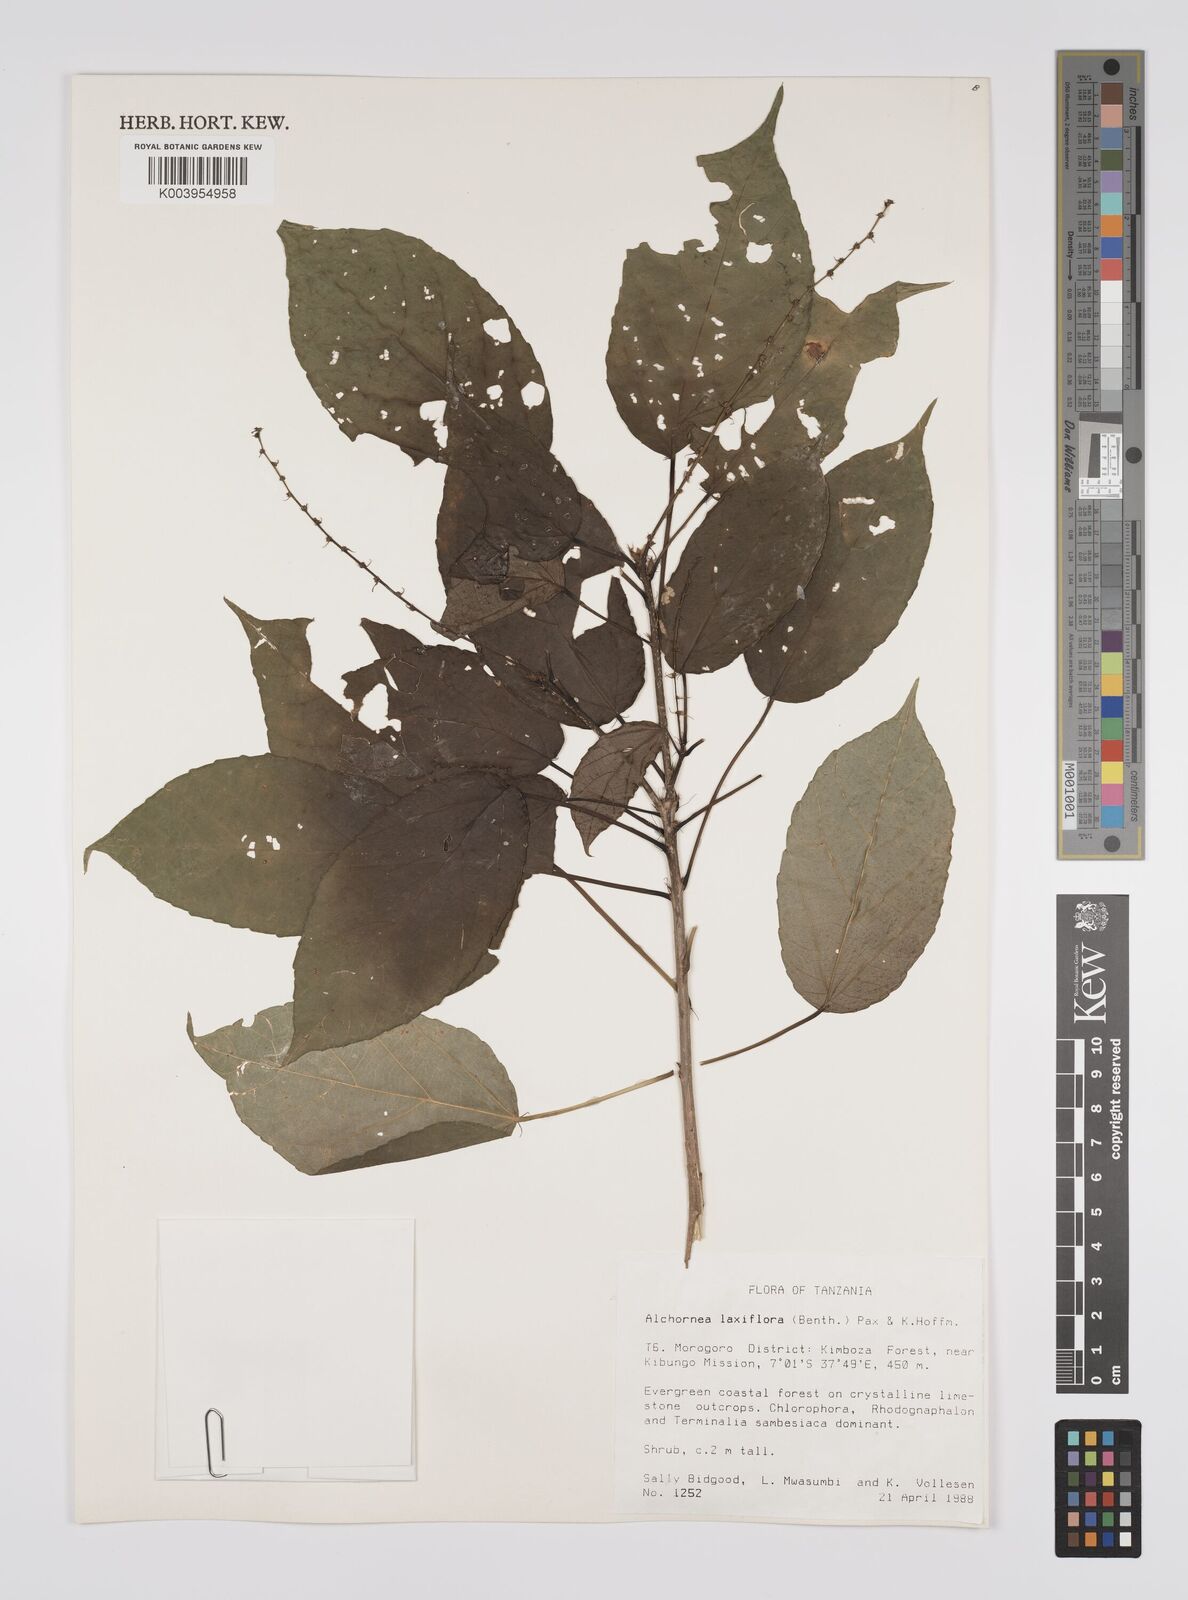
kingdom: Plantae
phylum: Tracheophyta
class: Magnoliopsida
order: Malpighiales
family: Euphorbiaceae
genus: Alchornea
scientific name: Alchornea laxiflora
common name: Lowveld bead-string
